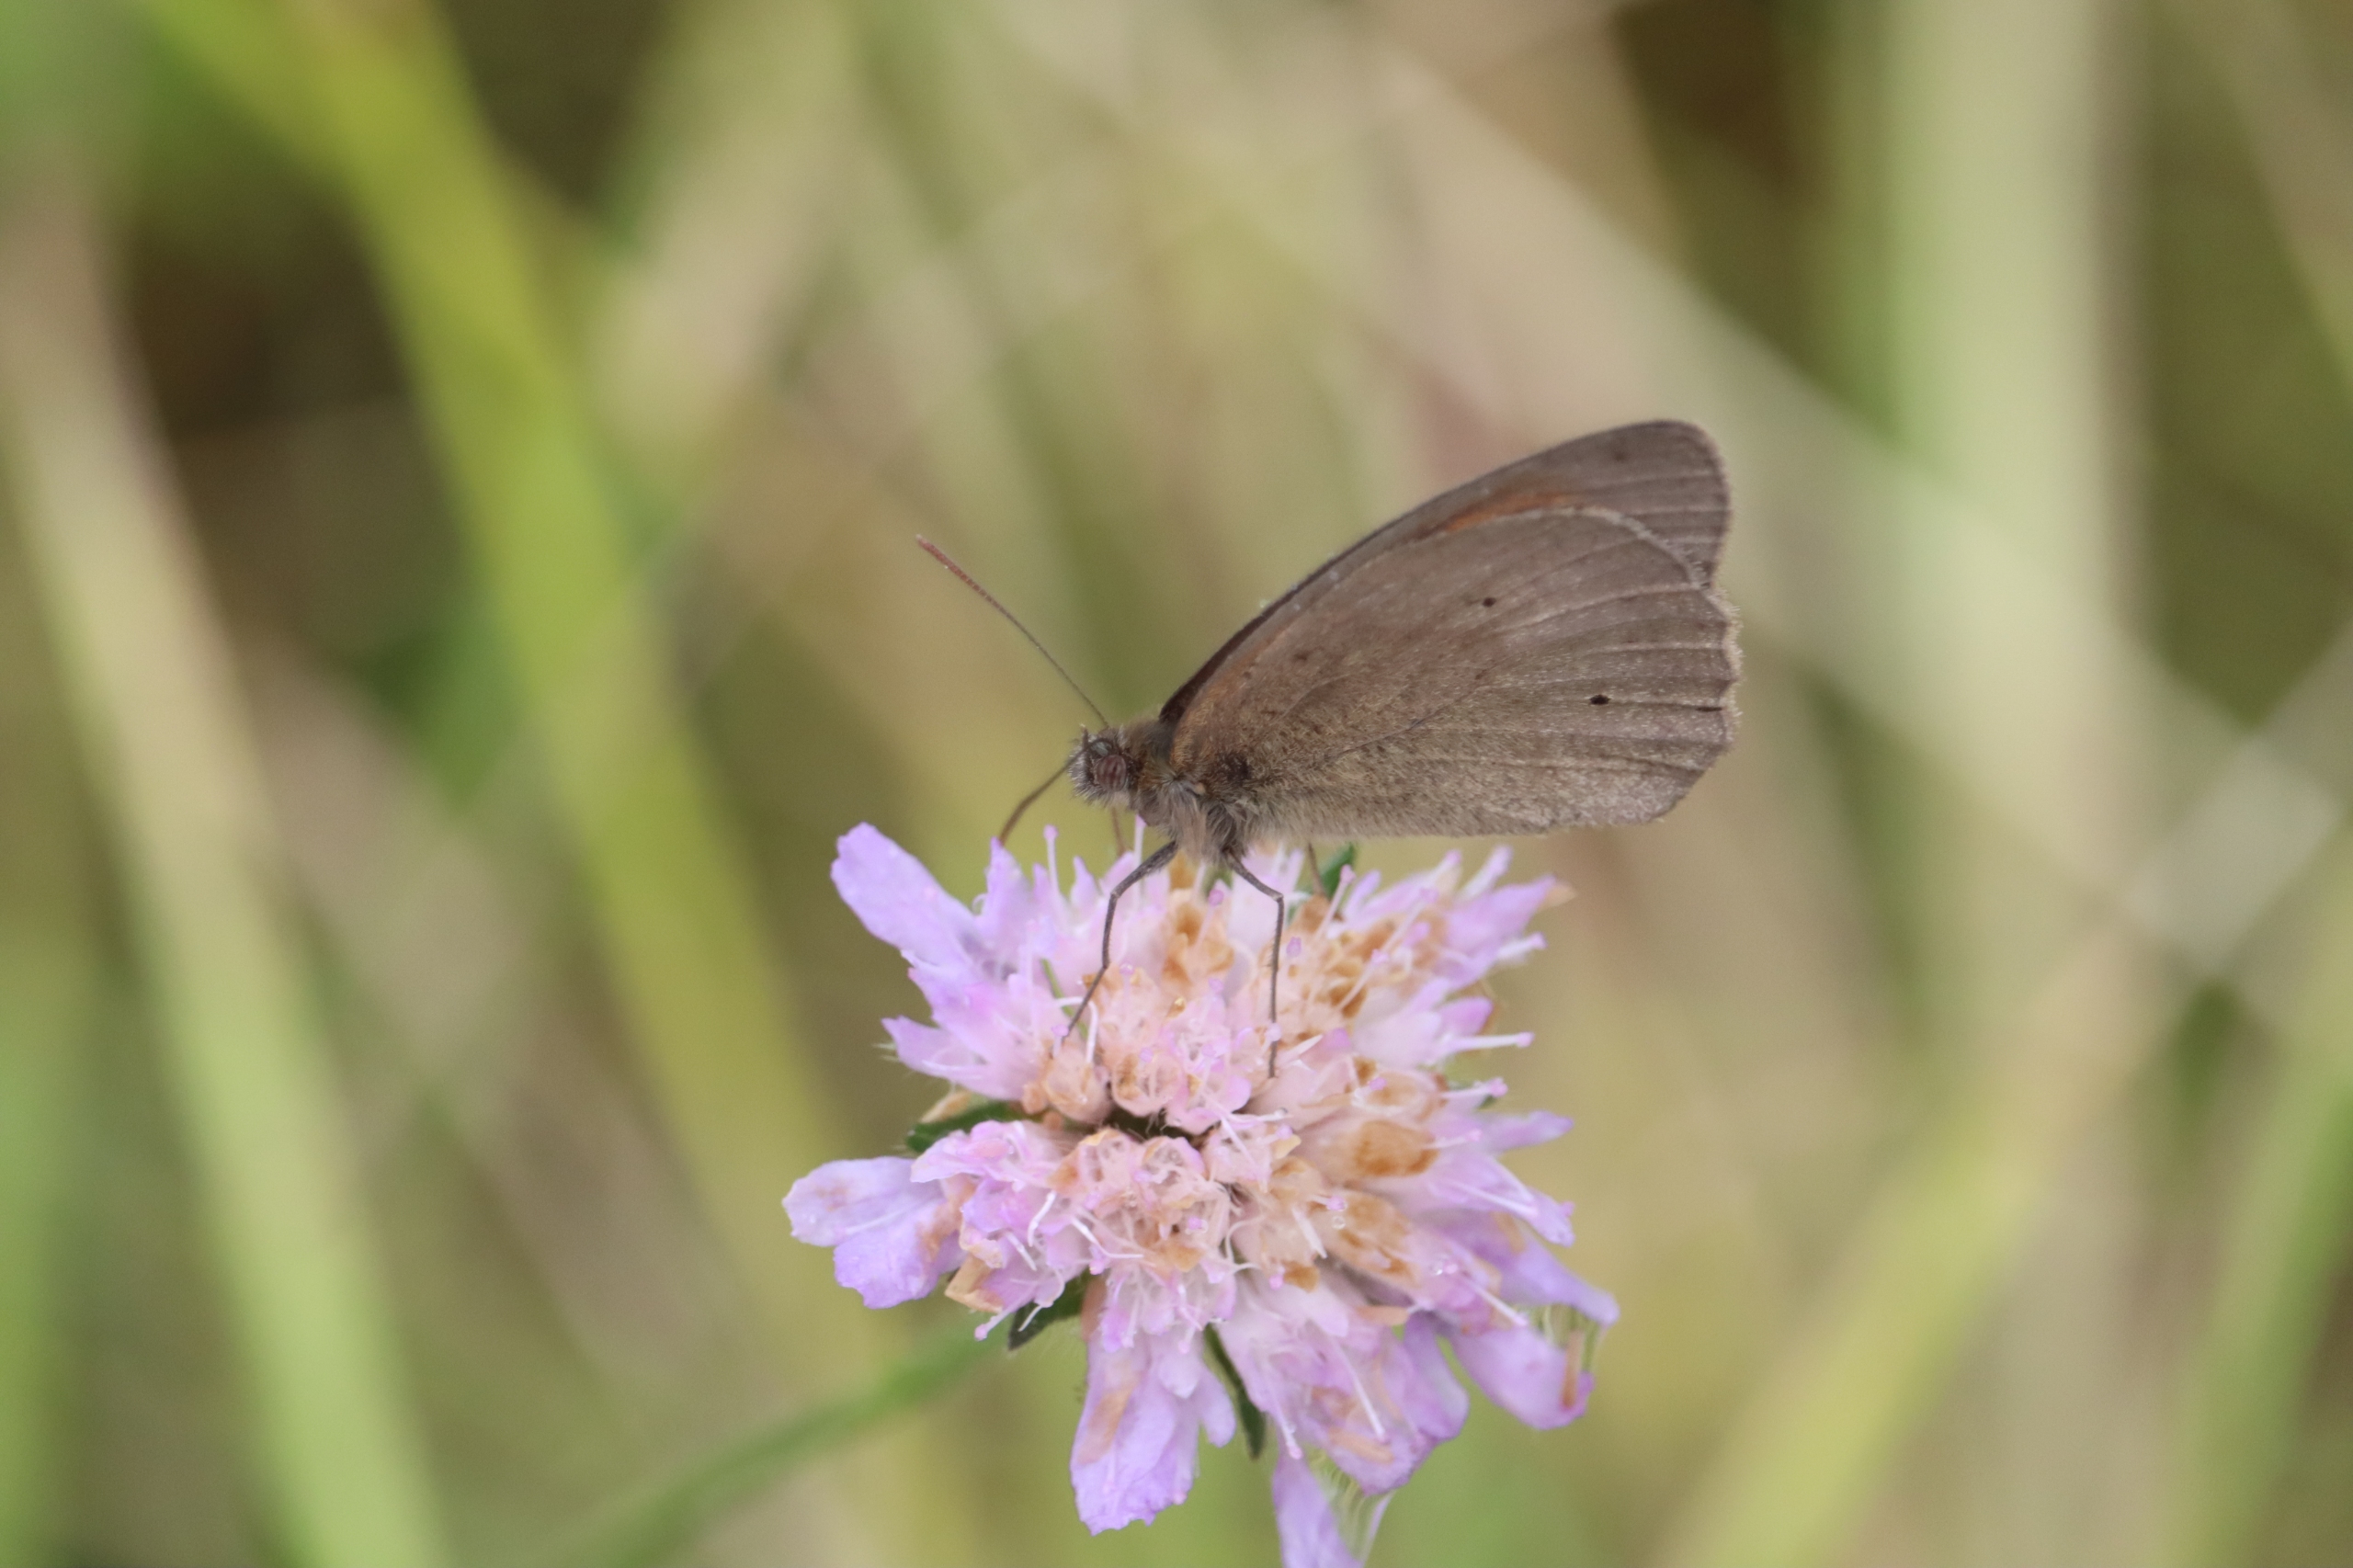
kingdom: Animalia
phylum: Arthropoda
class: Insecta
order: Lepidoptera
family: Nymphalidae
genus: Maniola
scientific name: Maniola jurtina
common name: Græsrandøje
